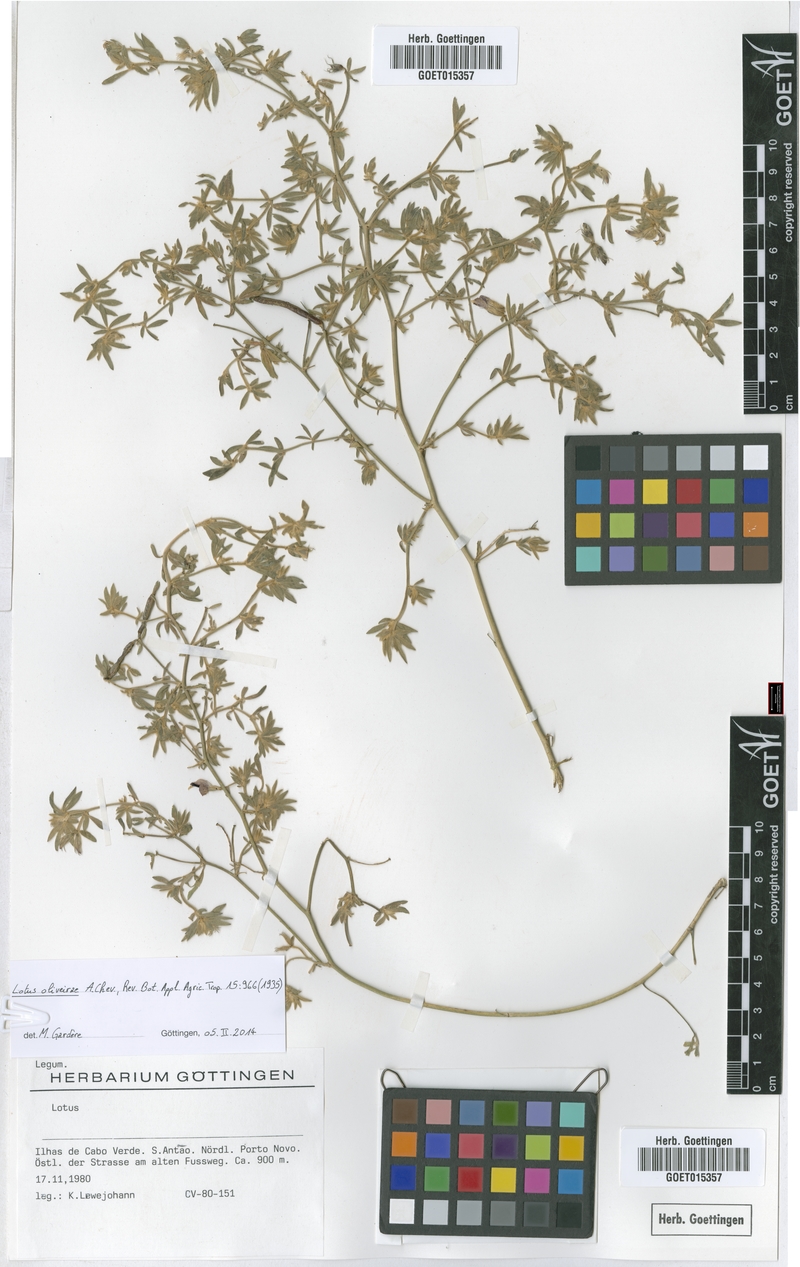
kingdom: Plantae
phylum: Tracheophyta
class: Magnoliopsida
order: Fabales
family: Fabaceae
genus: Lotus
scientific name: Lotus oliveirae
